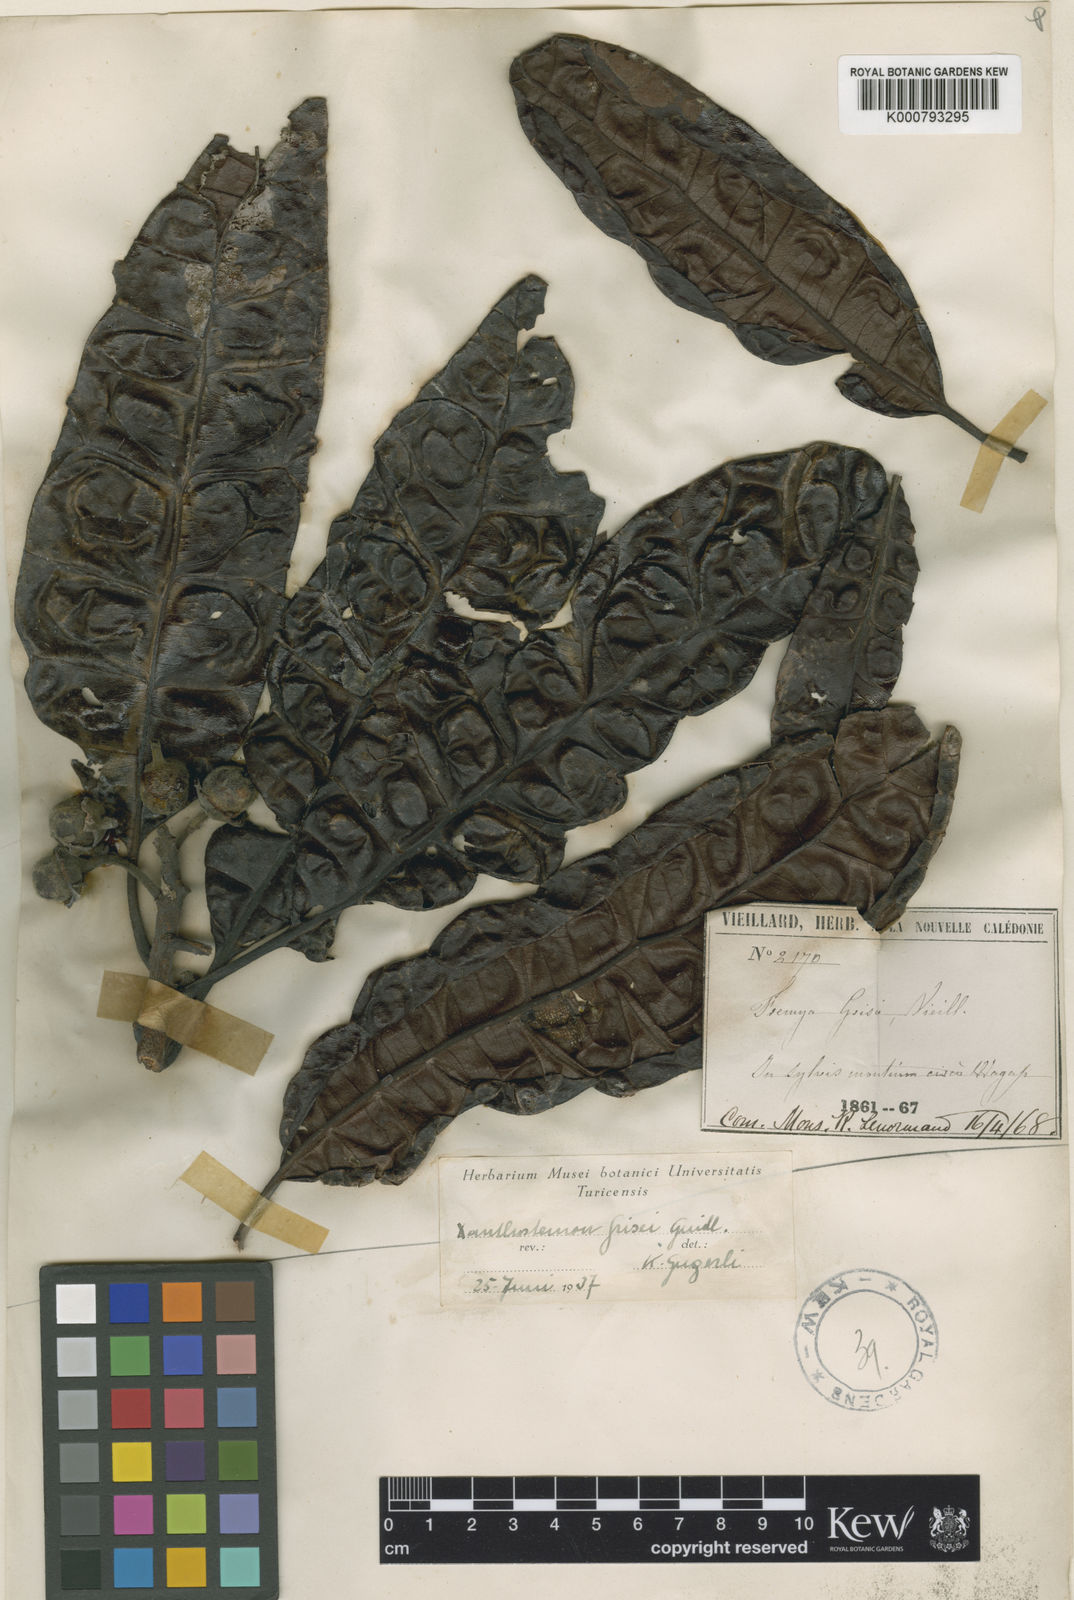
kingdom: Plantae
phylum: Tracheophyta
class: Magnoliopsida
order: Myrtales
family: Myrtaceae
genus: Xanthostemon
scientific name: Xanthostemon grisii
